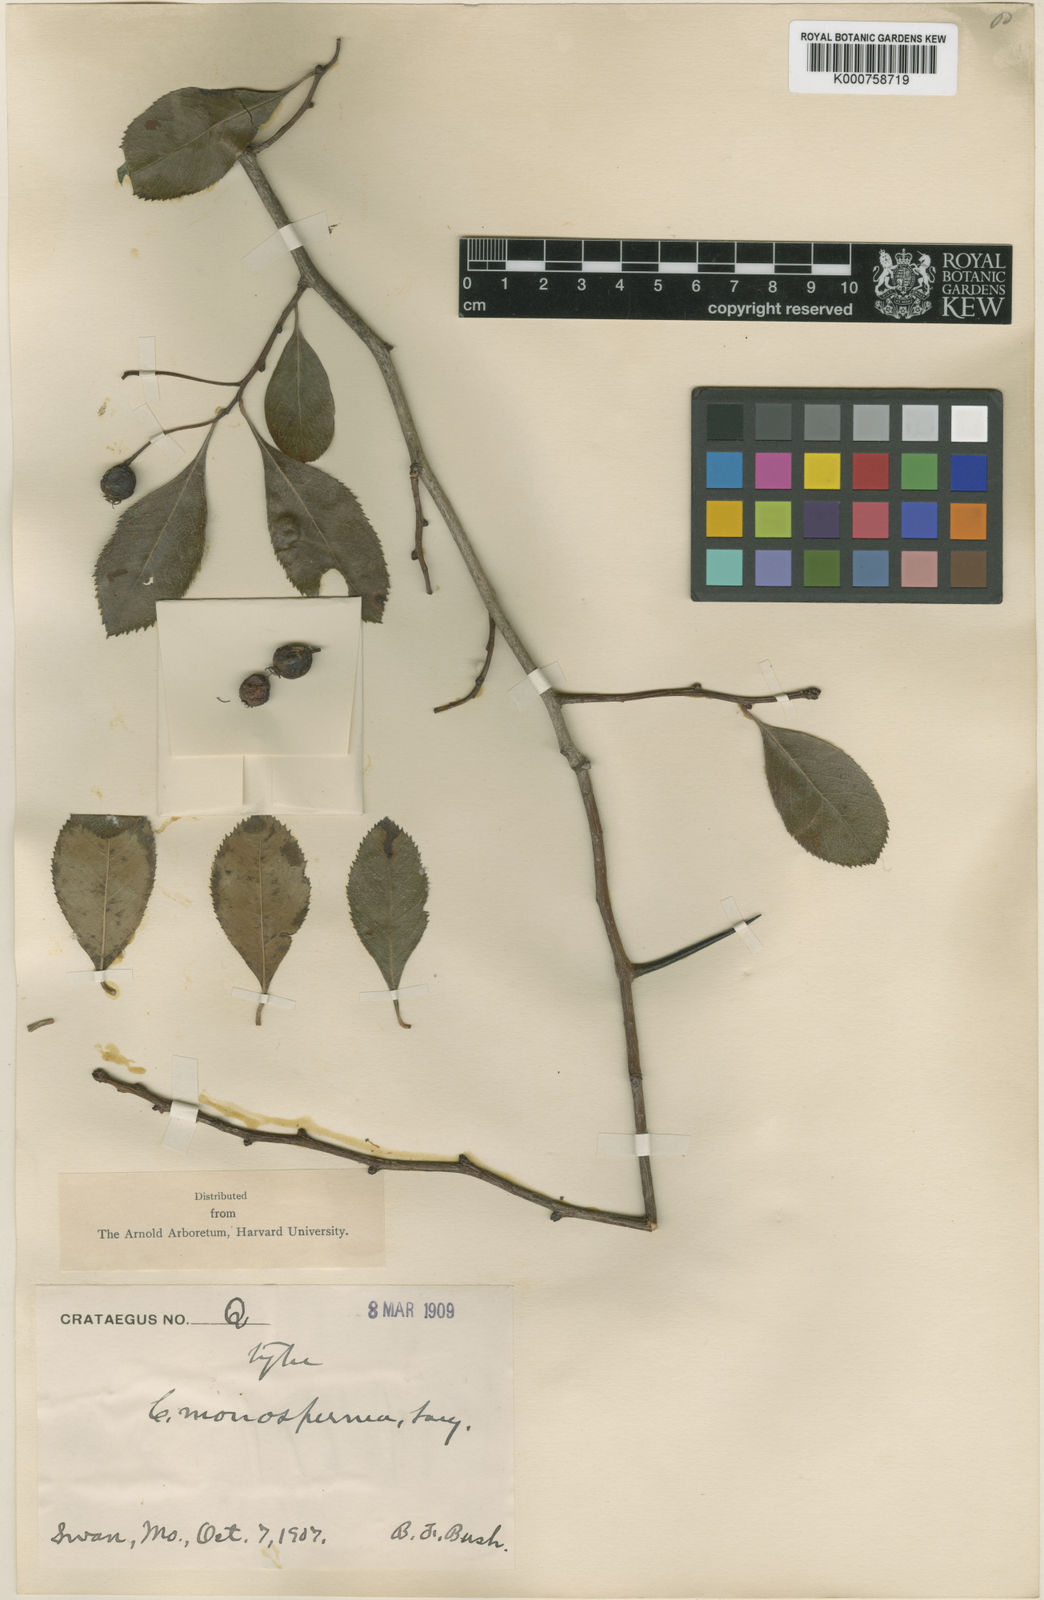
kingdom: Plantae
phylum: Tracheophyta
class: Magnoliopsida
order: Rosales
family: Rosaceae
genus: Crataegus
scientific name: Crataegus monosperma
